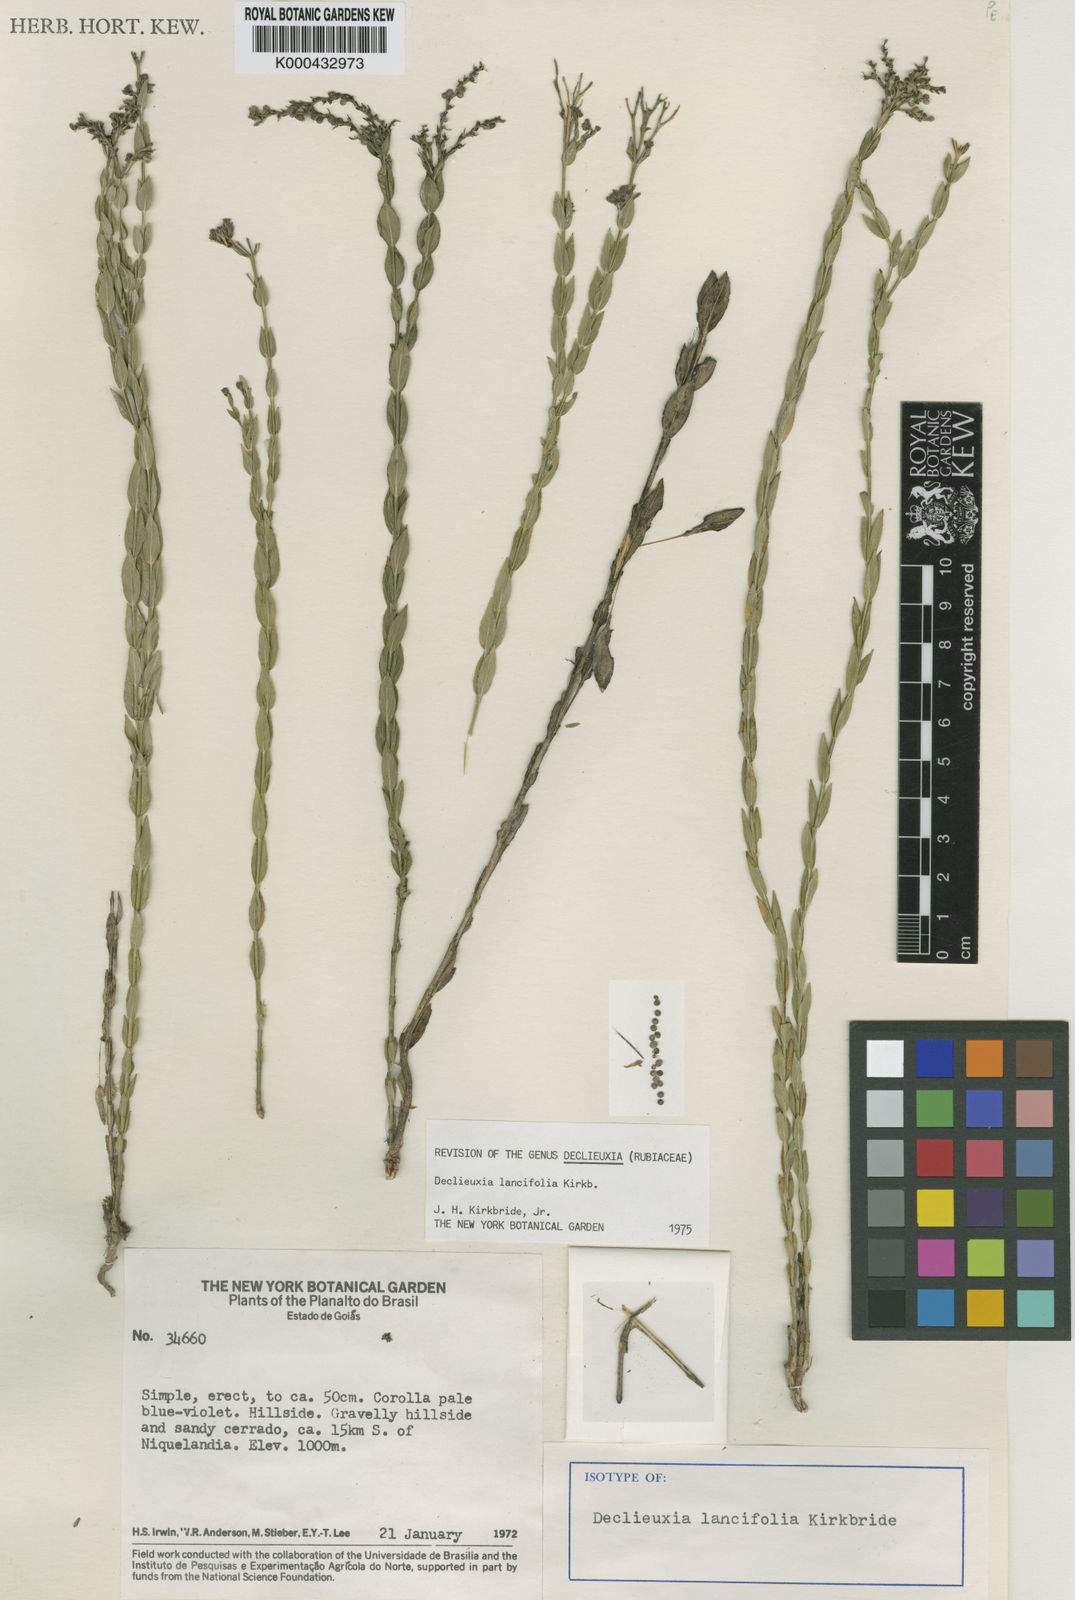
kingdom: Plantae
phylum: Tracheophyta
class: Magnoliopsida
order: Gentianales
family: Rubiaceae
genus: Declieuxia
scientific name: Declieuxia lancifolia
